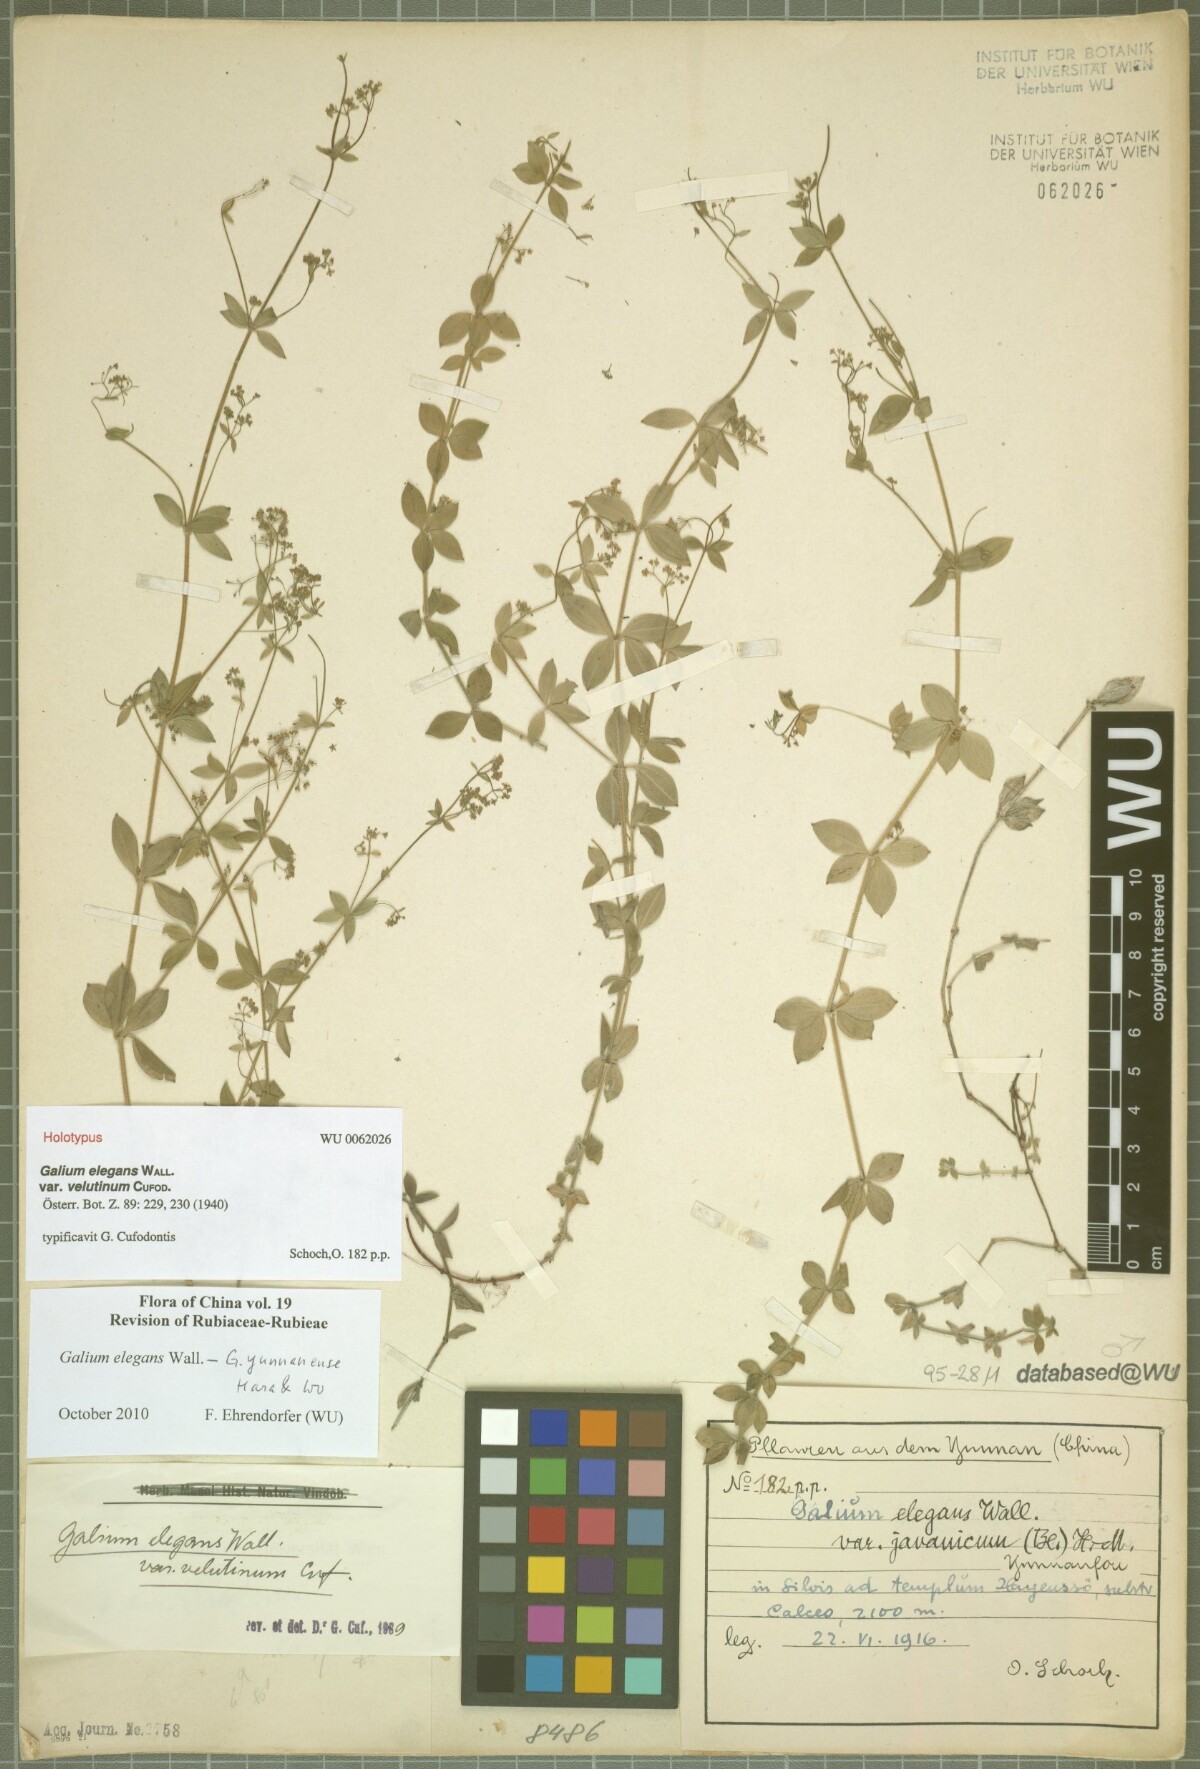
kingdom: Plantae
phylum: Tracheophyta
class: Magnoliopsida
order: Gentianales
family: Rubiaceae
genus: Galium
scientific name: Galium elegans
